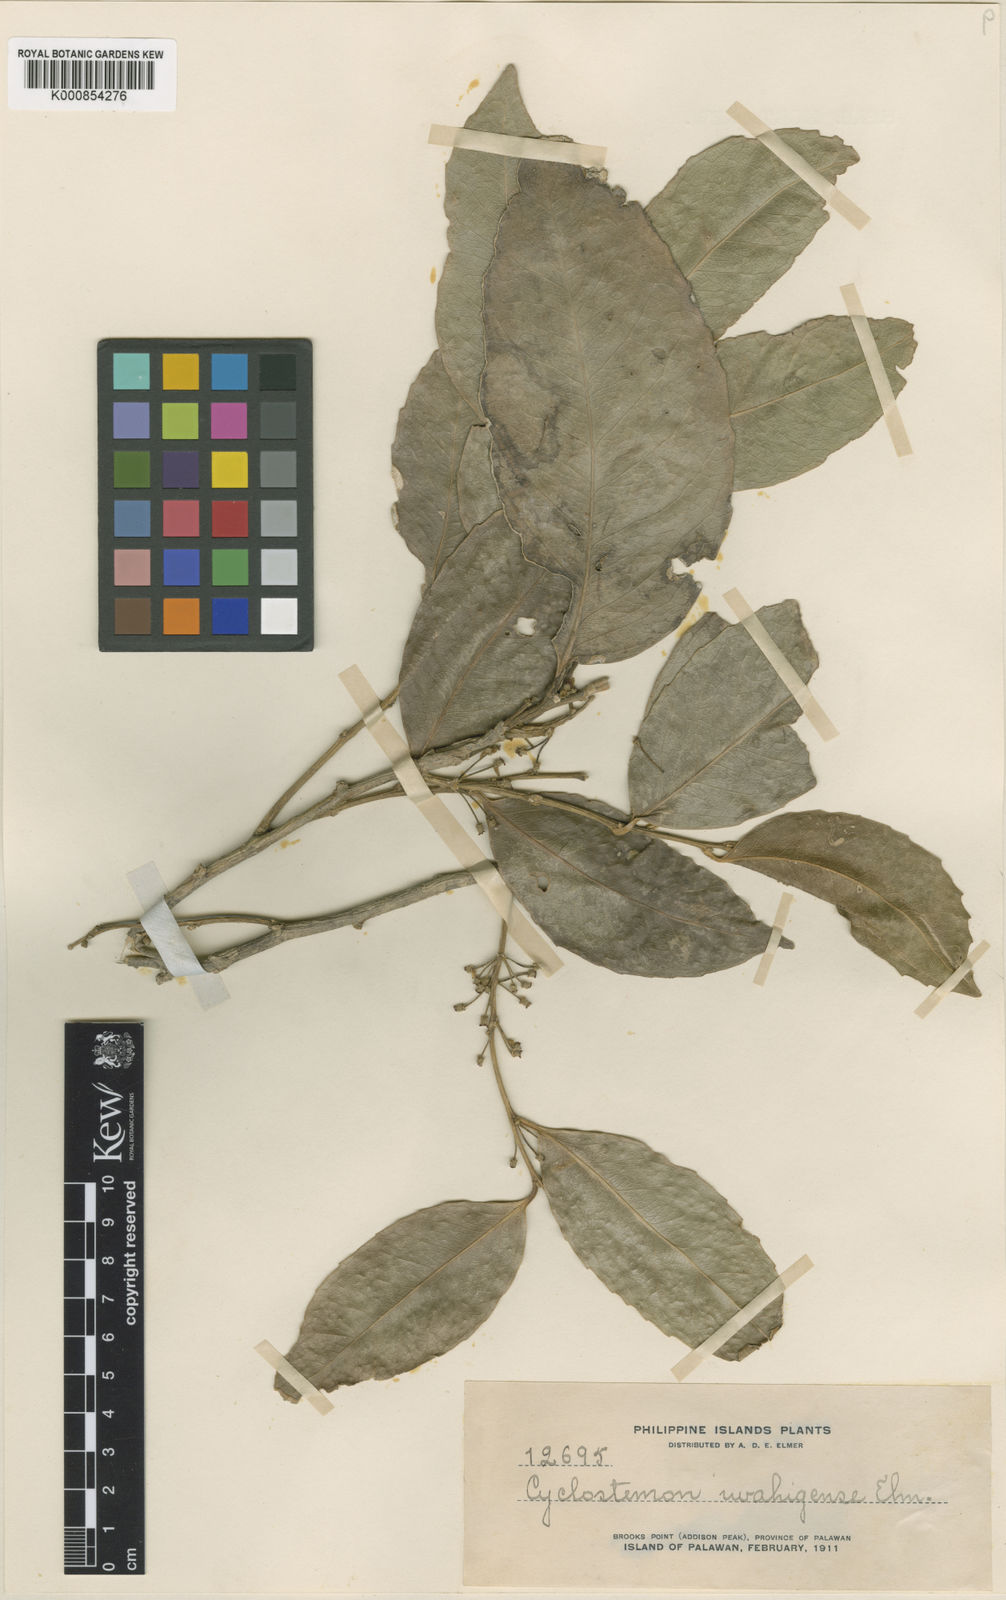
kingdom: Plantae
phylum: Tracheophyta
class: Magnoliopsida
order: Malpighiales
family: Putranjivaceae
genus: Drypetes
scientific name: Drypetes
